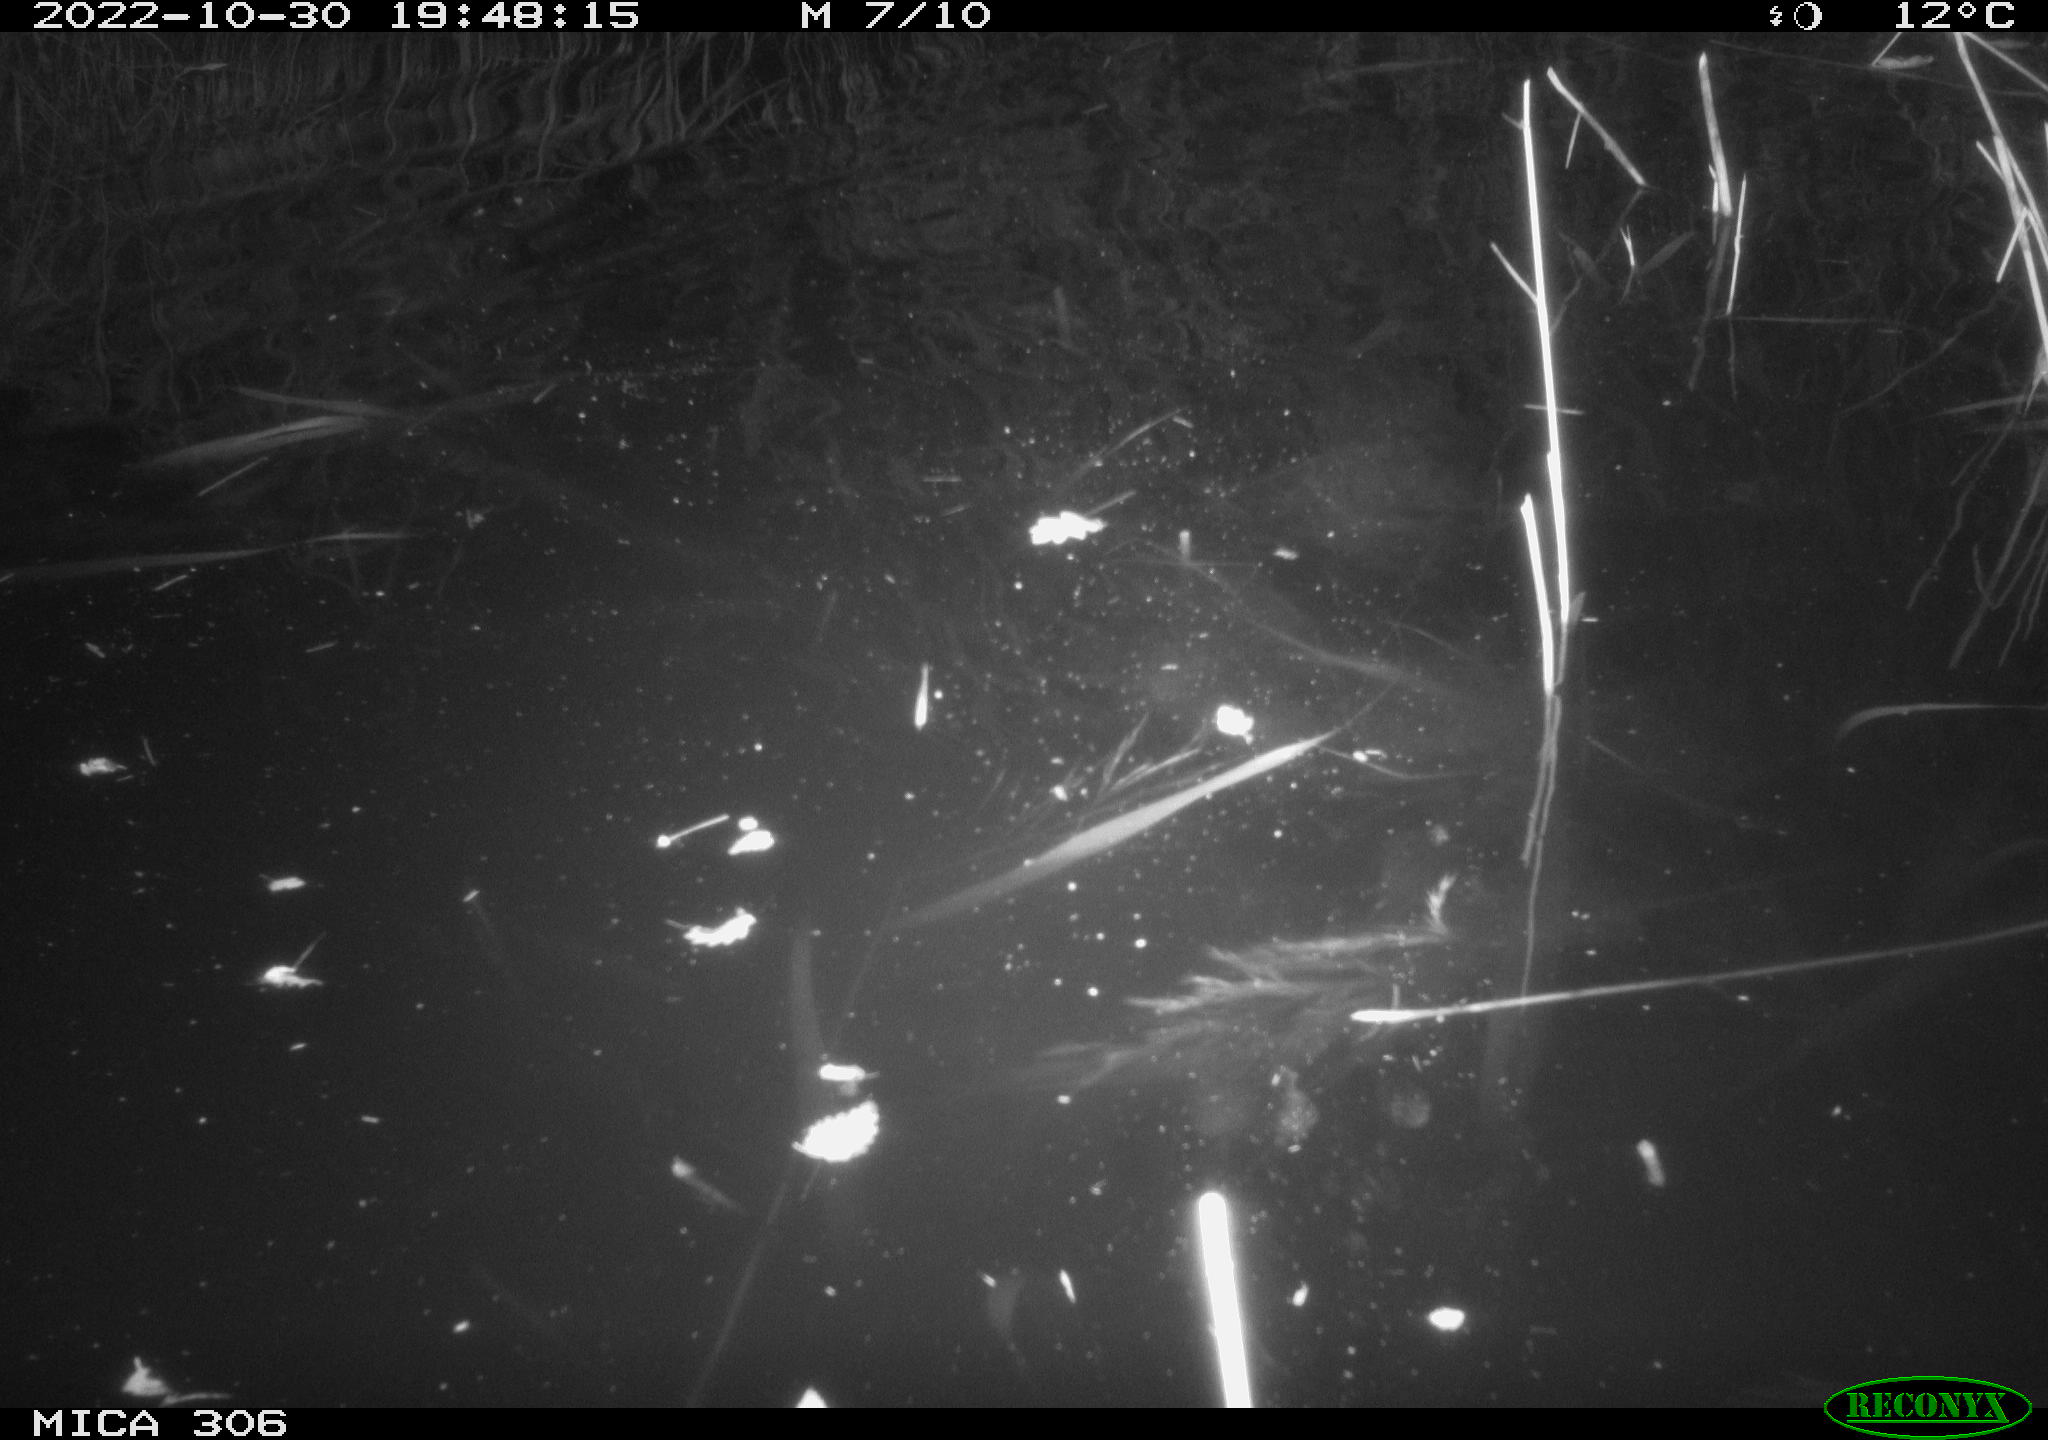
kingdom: Animalia
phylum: Chordata
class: Mammalia
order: Rodentia
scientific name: Rodentia
